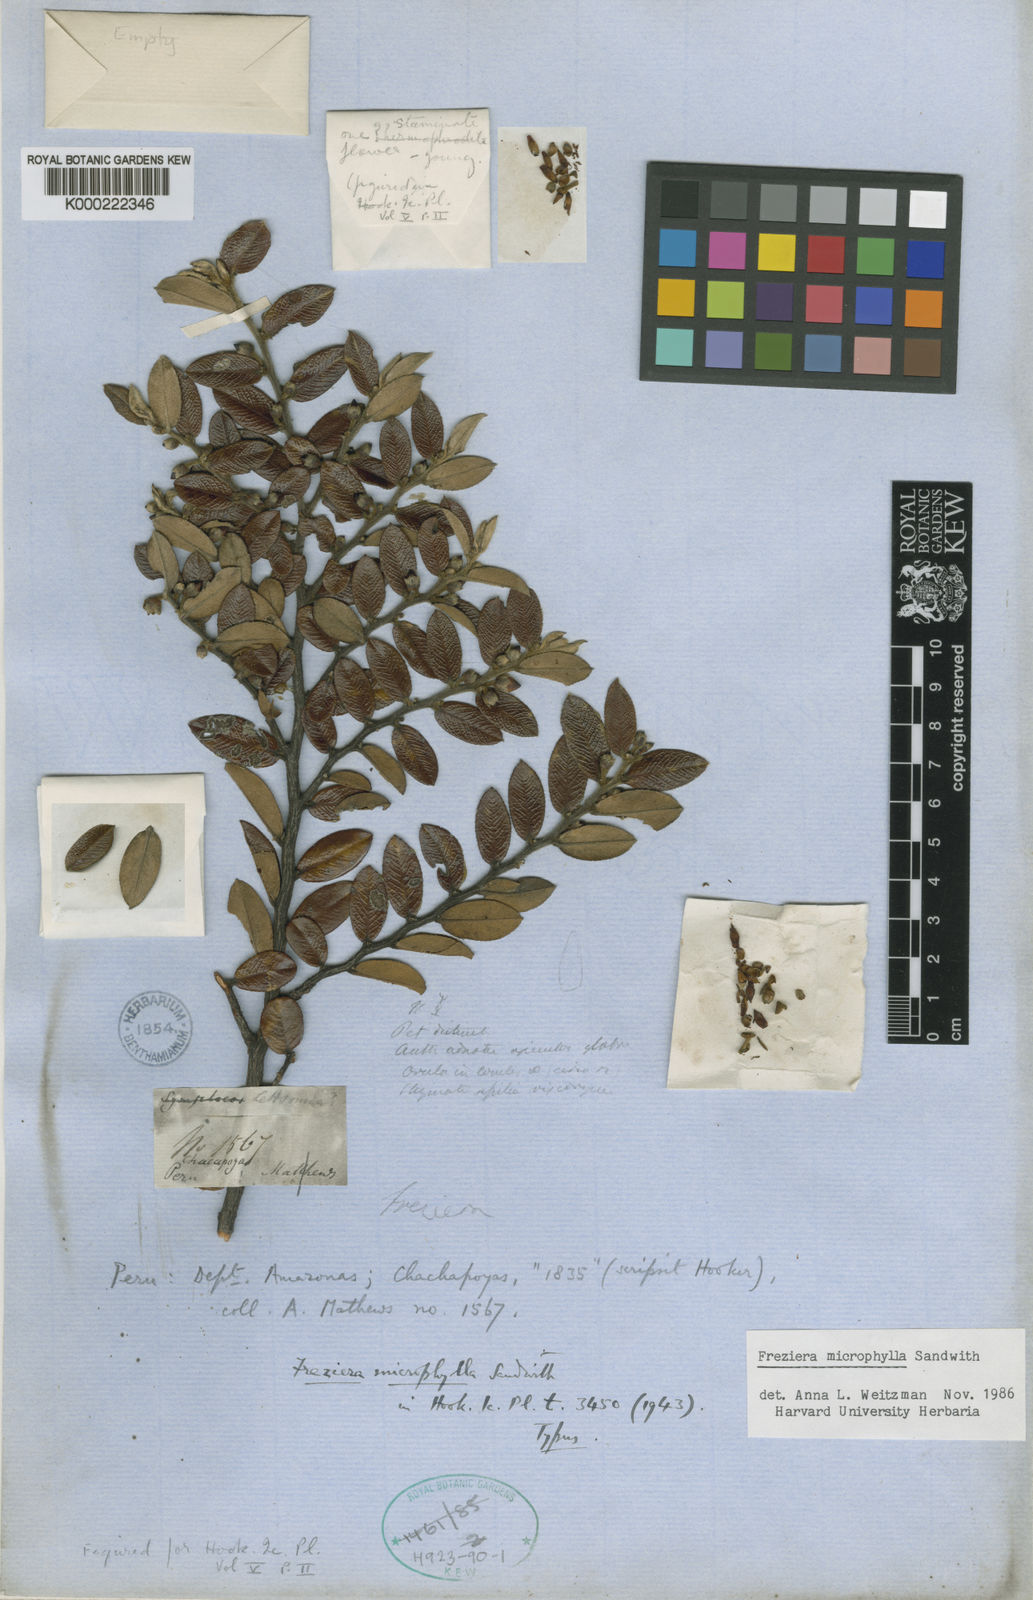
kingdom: Plantae
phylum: Tracheophyta
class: Magnoliopsida
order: Ericales
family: Pentaphylacaceae
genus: Freziera
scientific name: Freziera microphylla
